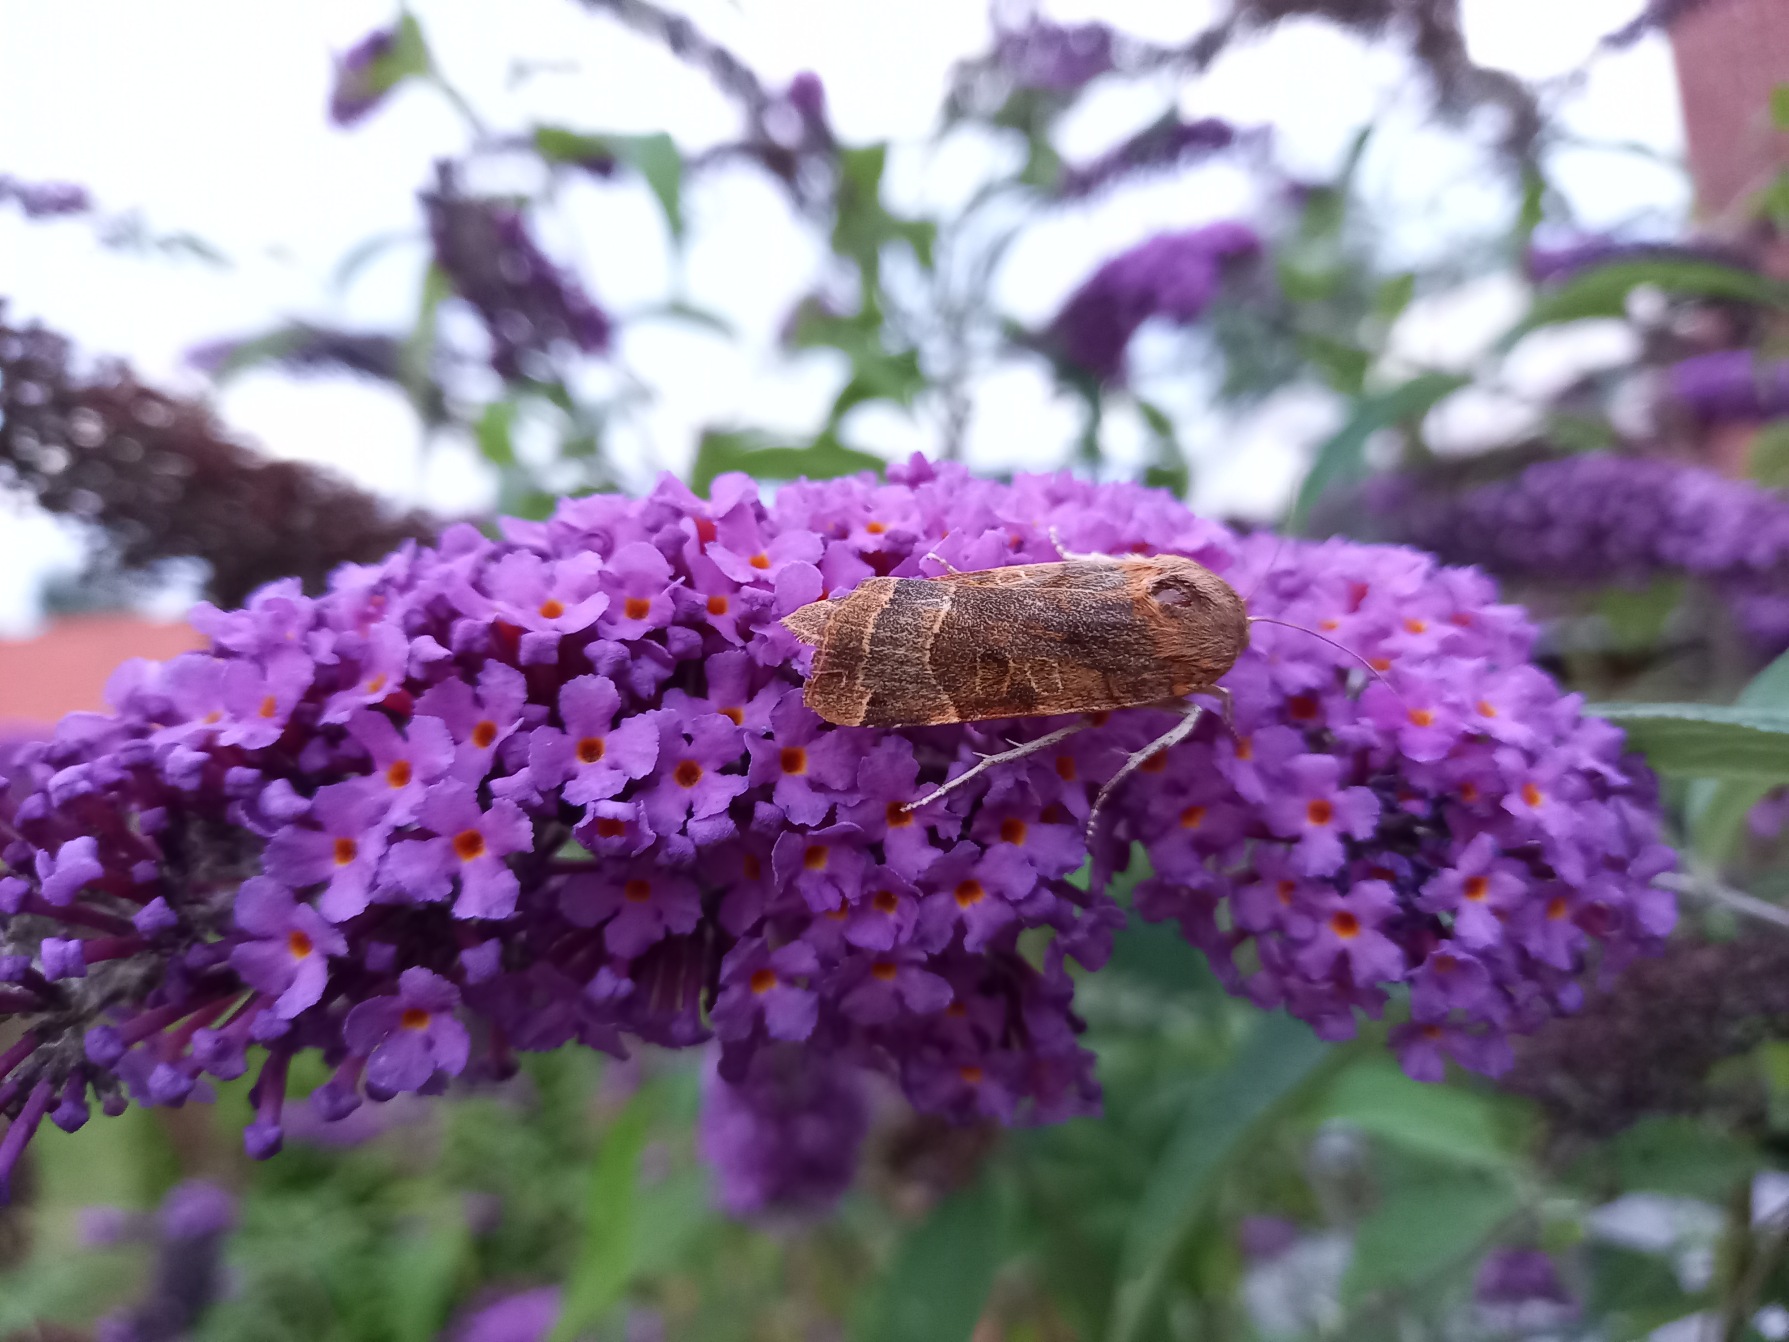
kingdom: Animalia
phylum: Arthropoda
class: Insecta
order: Lepidoptera
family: Noctuidae
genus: Noctua
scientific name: Noctua fimbriata
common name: Gul båndugle
